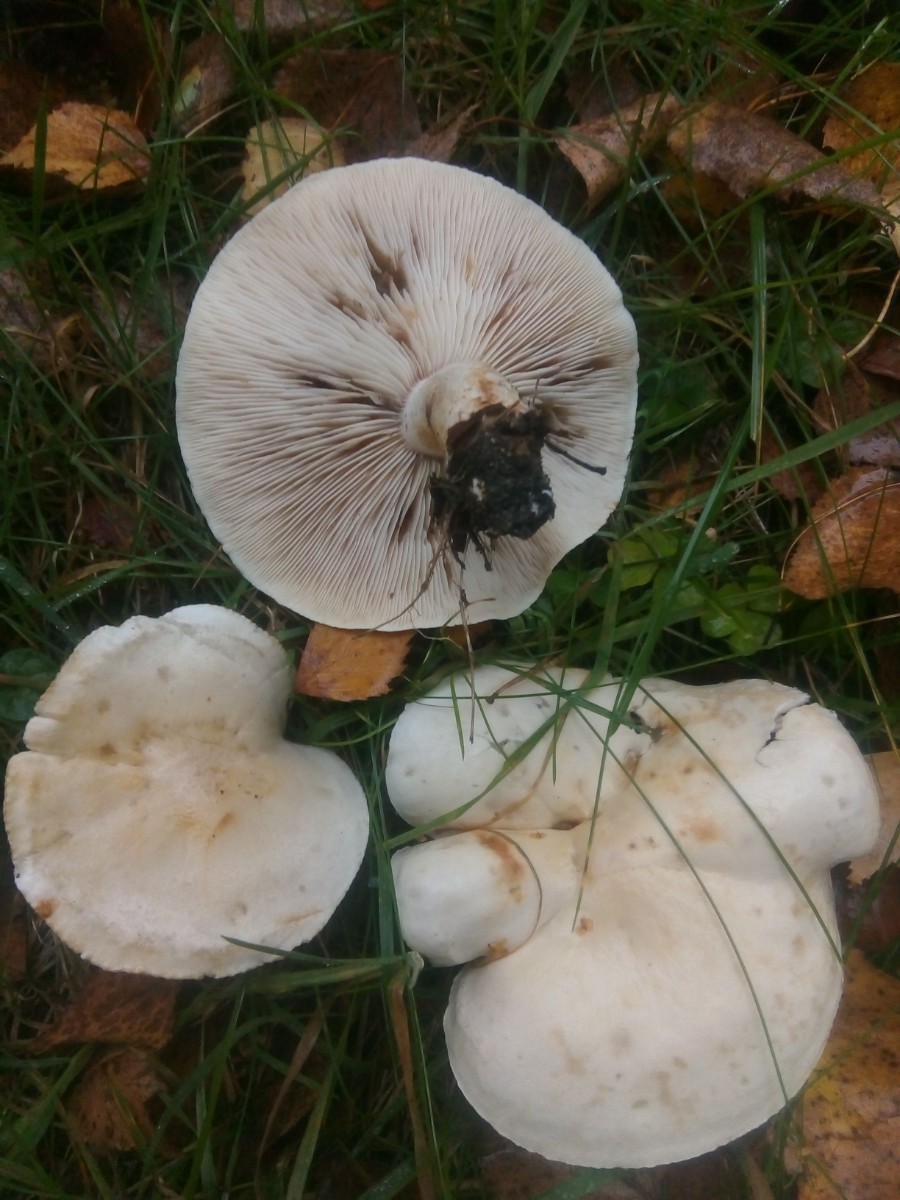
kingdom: Fungi
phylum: Basidiomycota
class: Agaricomycetes
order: Agaricales
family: Tricholomataceae
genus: Tricholoma
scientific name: Tricholoma stiparophyllum
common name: hvid ridderhat
